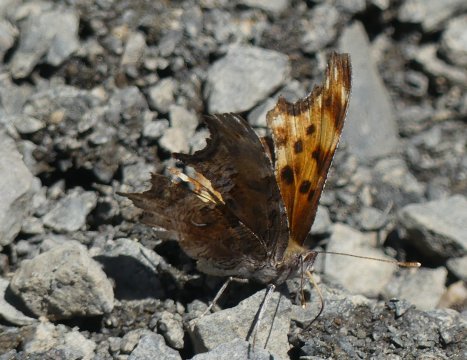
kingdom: Animalia
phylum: Arthropoda
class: Insecta
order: Lepidoptera
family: Nymphalidae
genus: Polygonia
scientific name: Polygonia gracilis
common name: Hoary Comma
